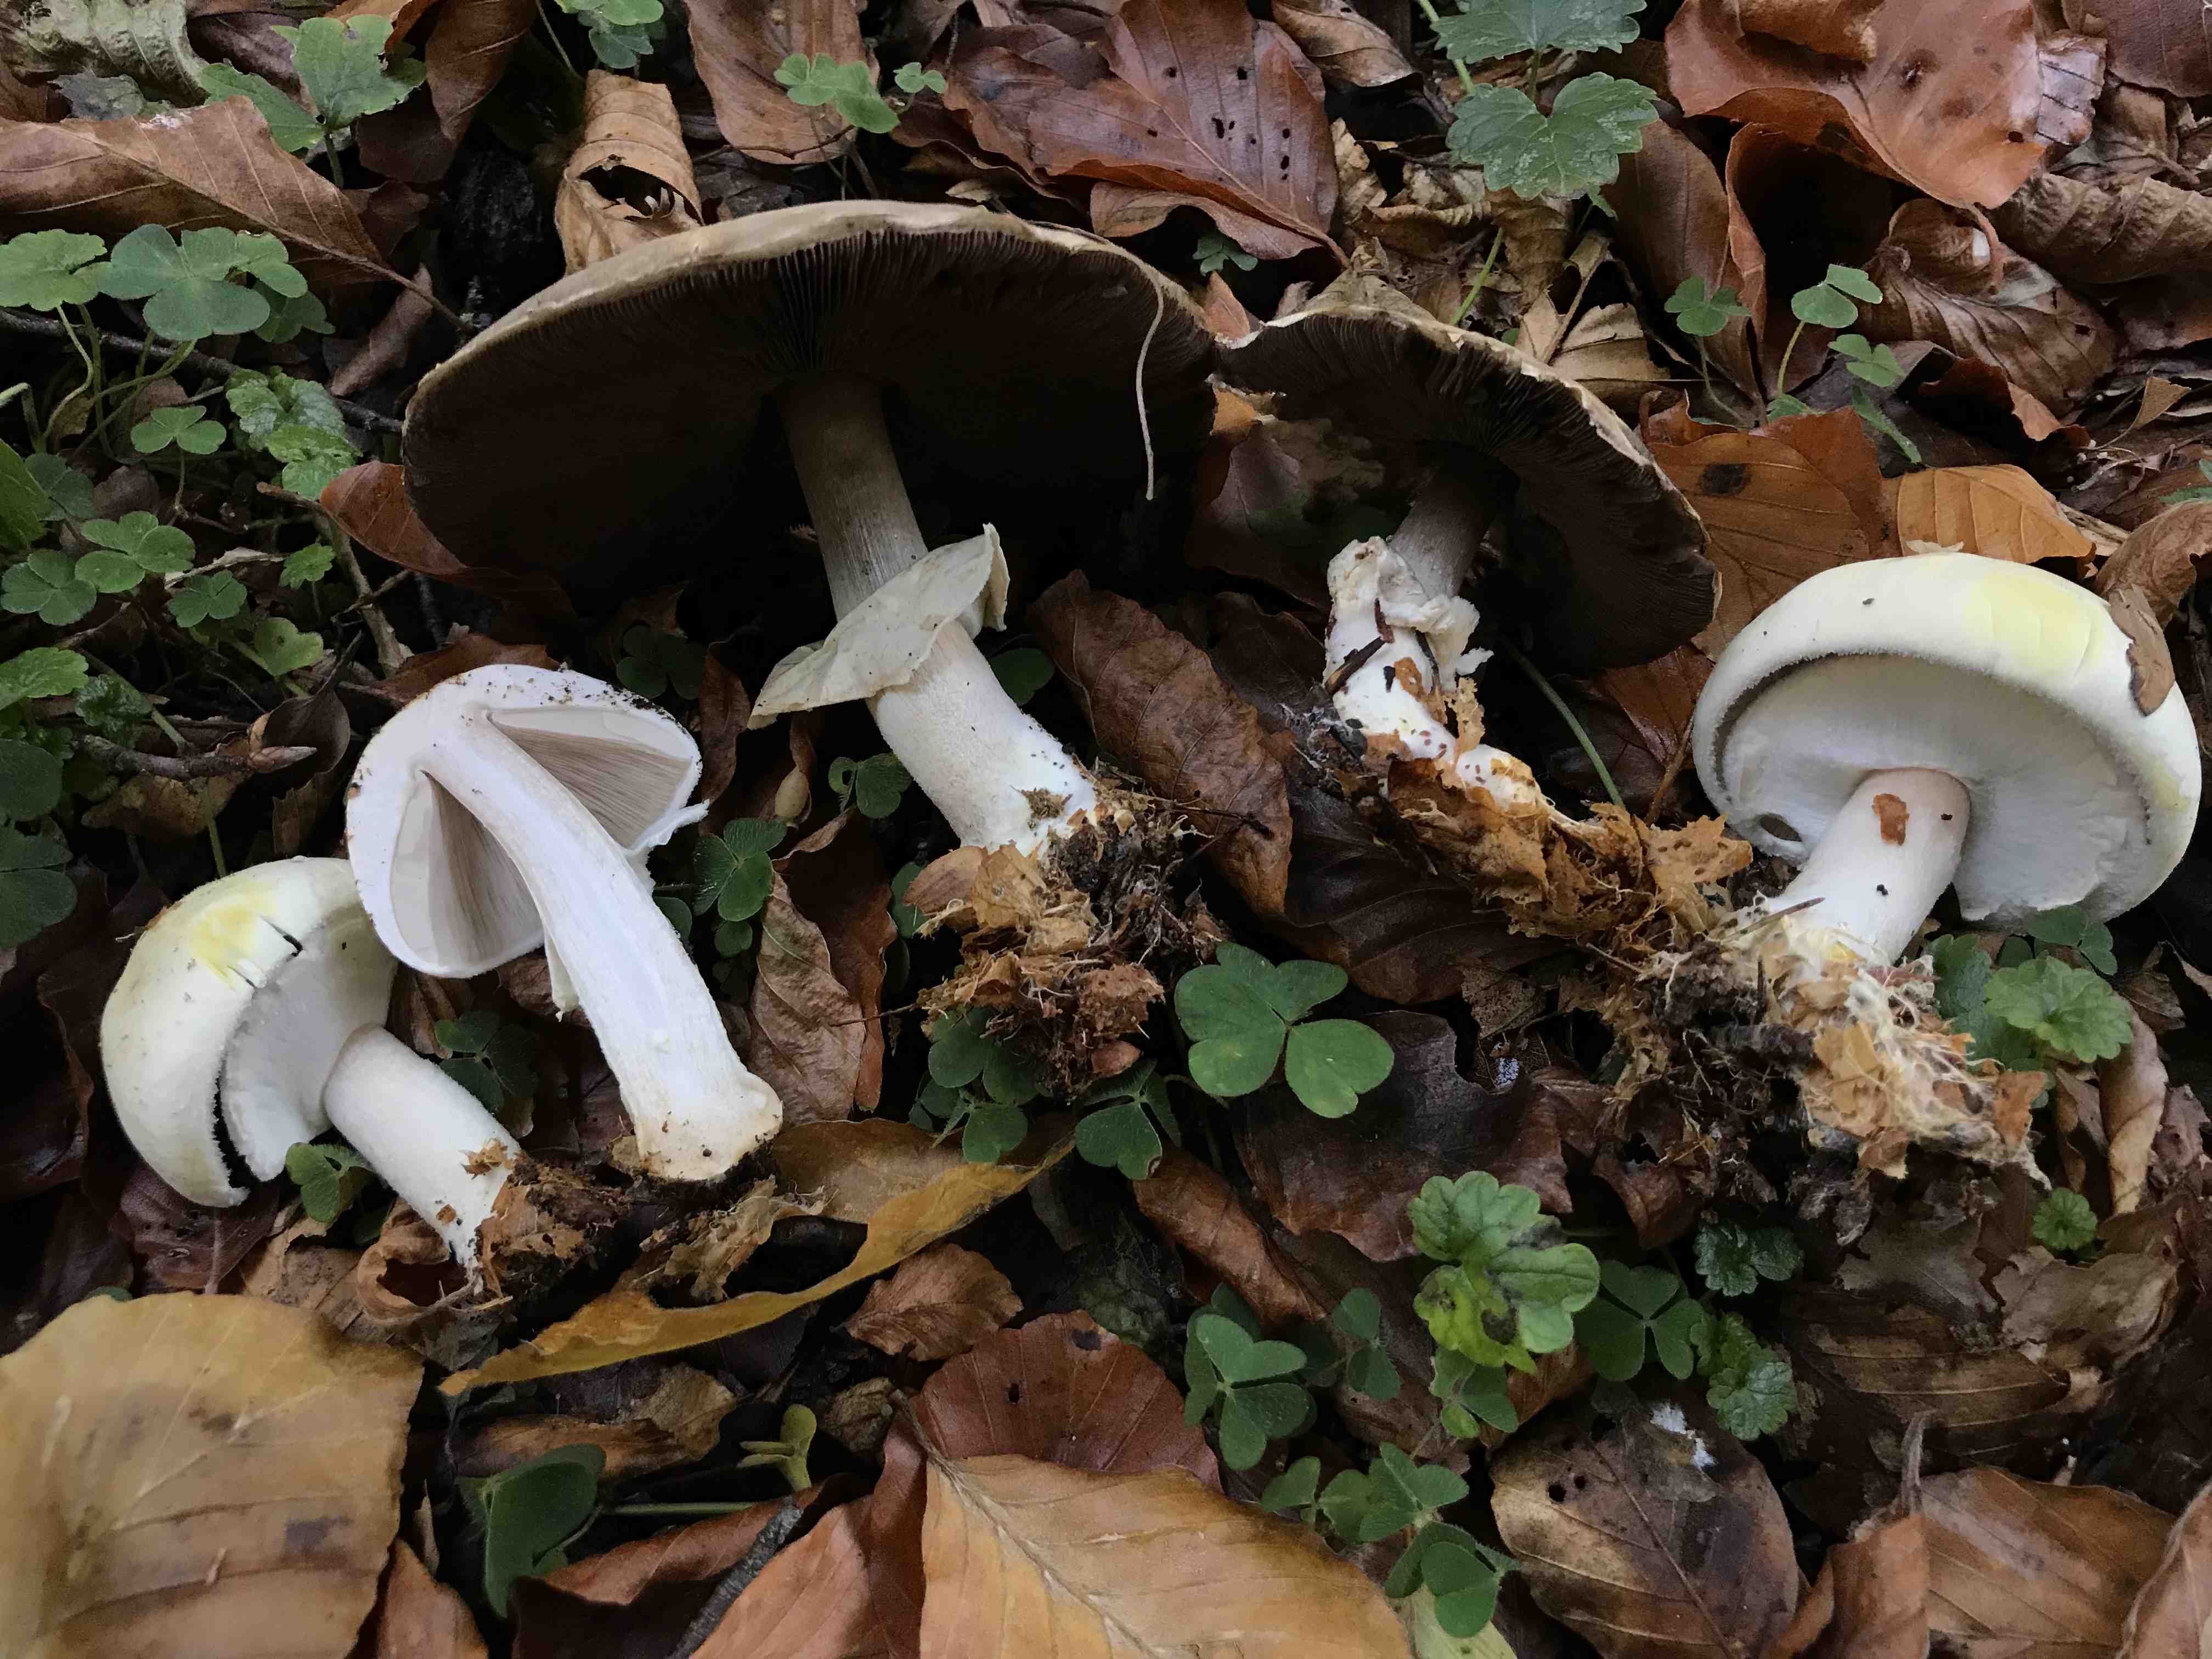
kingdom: Fungi
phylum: Basidiomycota
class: Agaricomycetes
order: Agaricales
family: Agaricaceae
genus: Agaricus
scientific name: Agaricus
